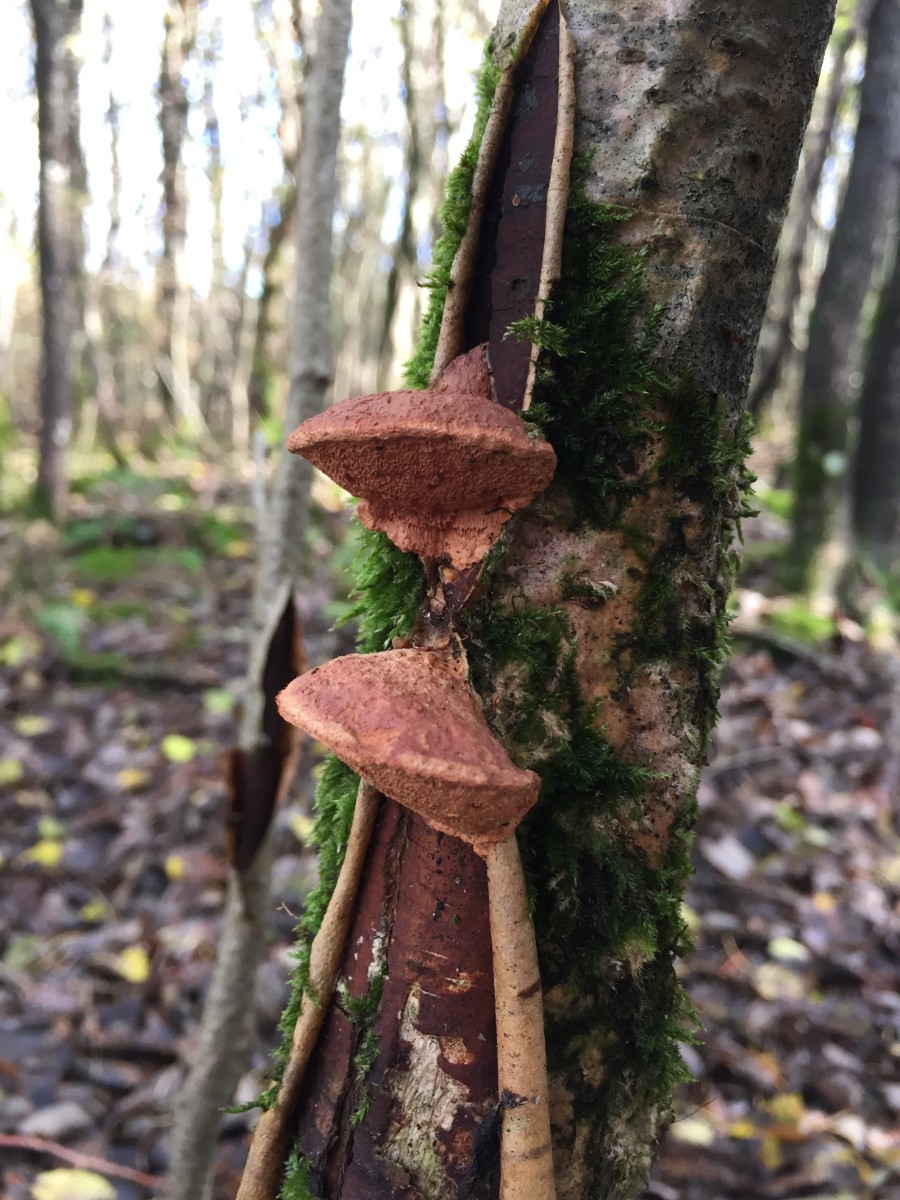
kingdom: Fungi
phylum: Basidiomycota
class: Agaricomycetes
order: Polyporales
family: Phanerochaetaceae
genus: Hapalopilus
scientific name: Hapalopilus rutilans
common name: rødlig okkerporesvamp
